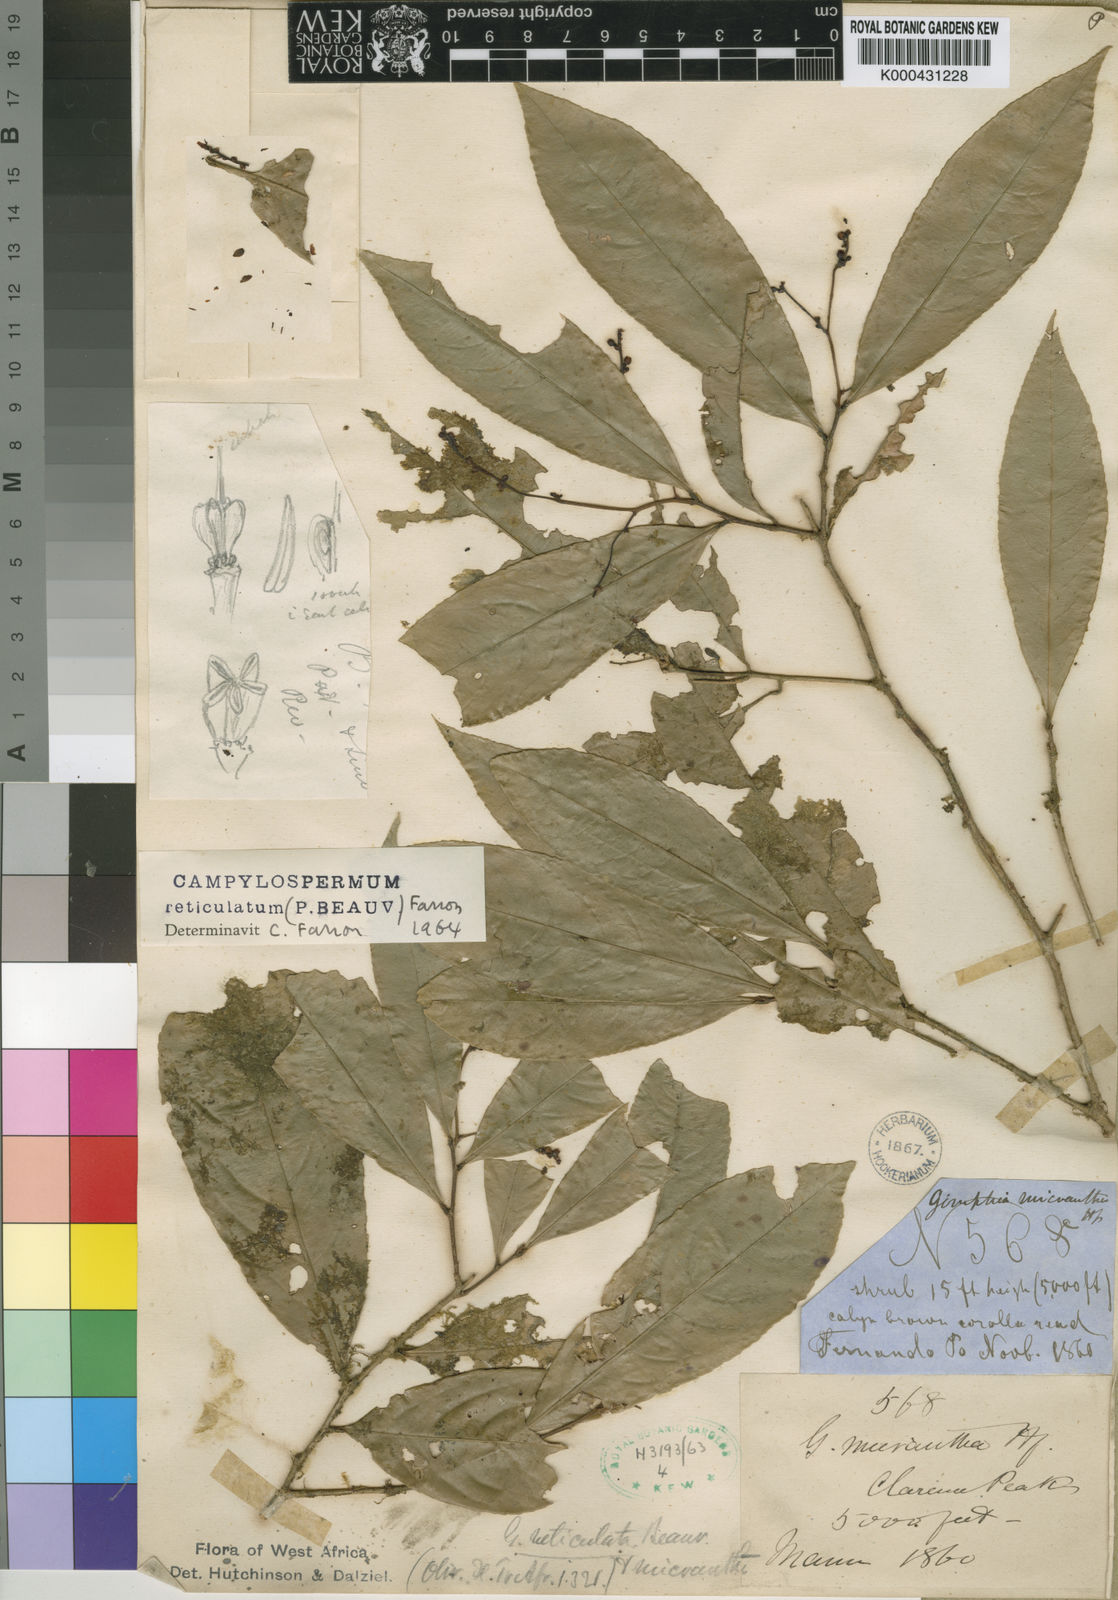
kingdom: Plantae
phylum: Tracheophyta
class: Magnoliopsida
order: Malpighiales
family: Ochnaceae
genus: Campylospermum
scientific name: Campylospermum reticulatum
